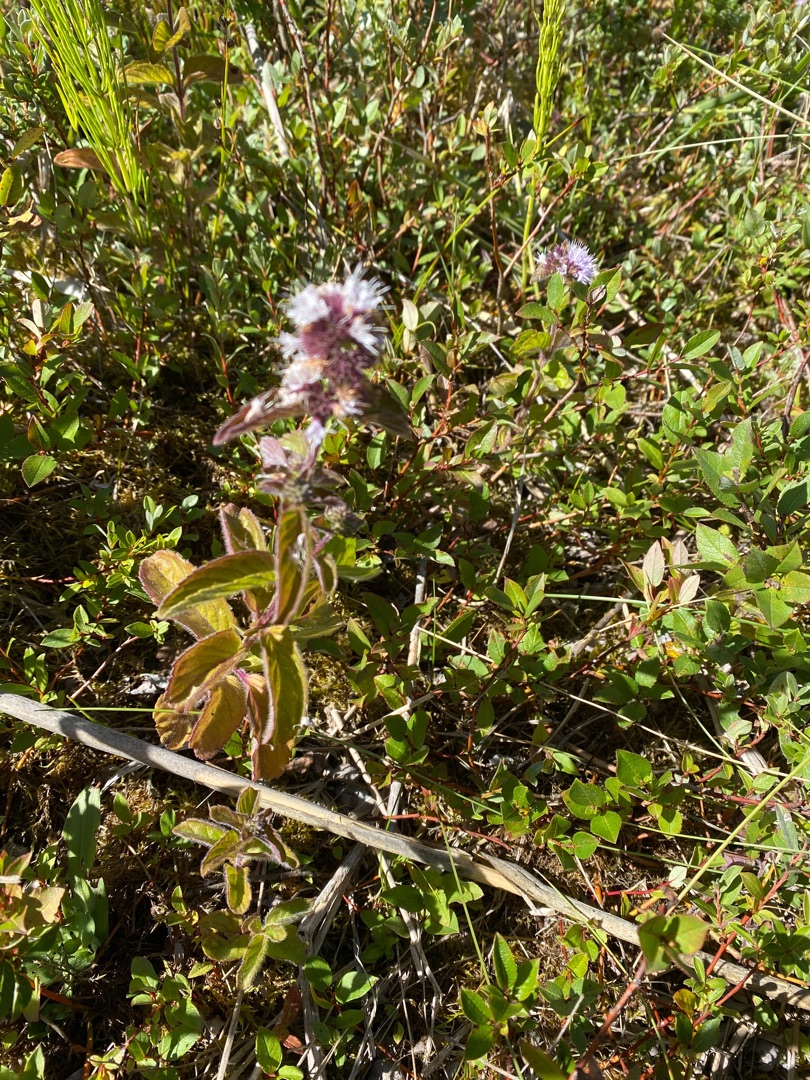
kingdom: Plantae
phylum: Tracheophyta
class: Magnoliopsida
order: Lamiales
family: Lamiaceae
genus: Mentha
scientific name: Mentha aquatica
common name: Vand-mynte
